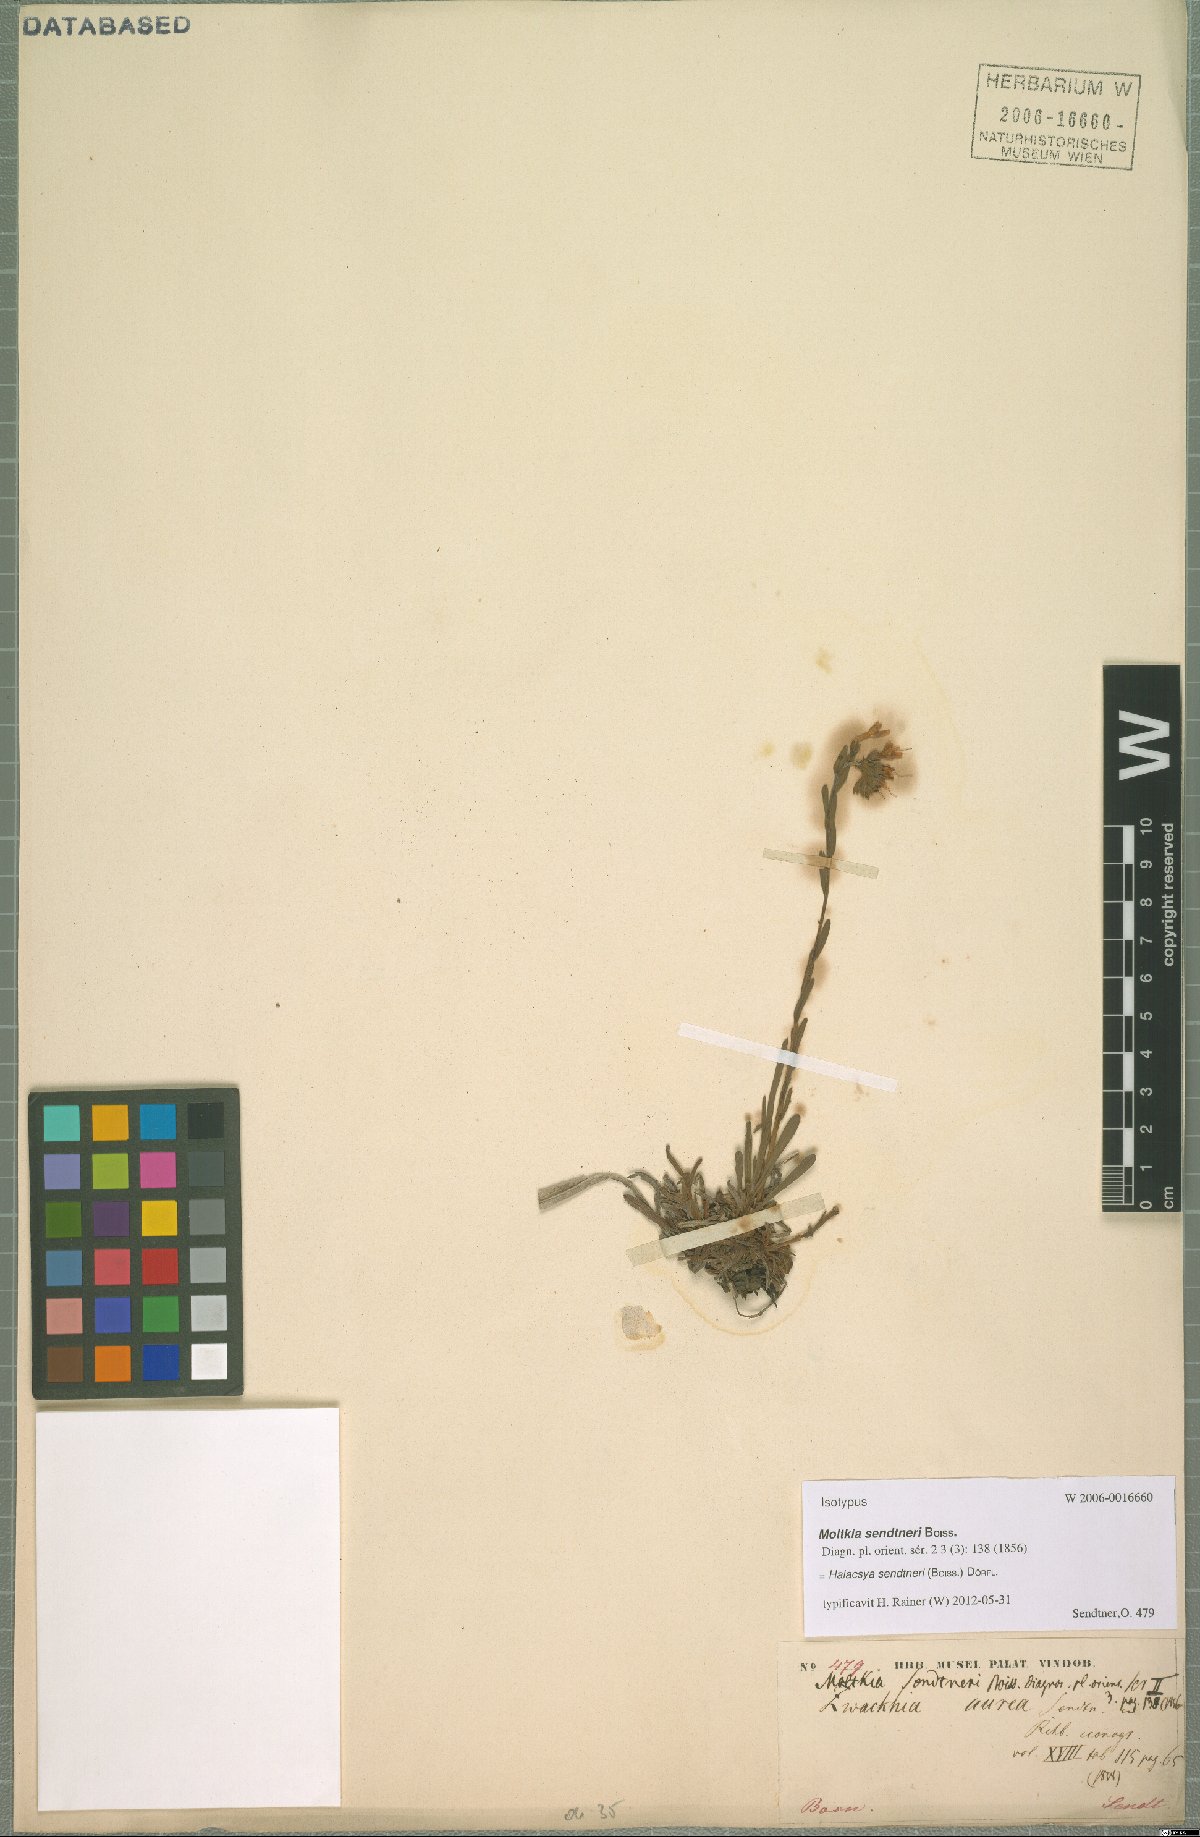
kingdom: Plantae
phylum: Tracheophyta
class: Magnoliopsida
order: Boraginales
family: Boraginaceae
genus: Halacsya
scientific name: Halacsya sendtneri
